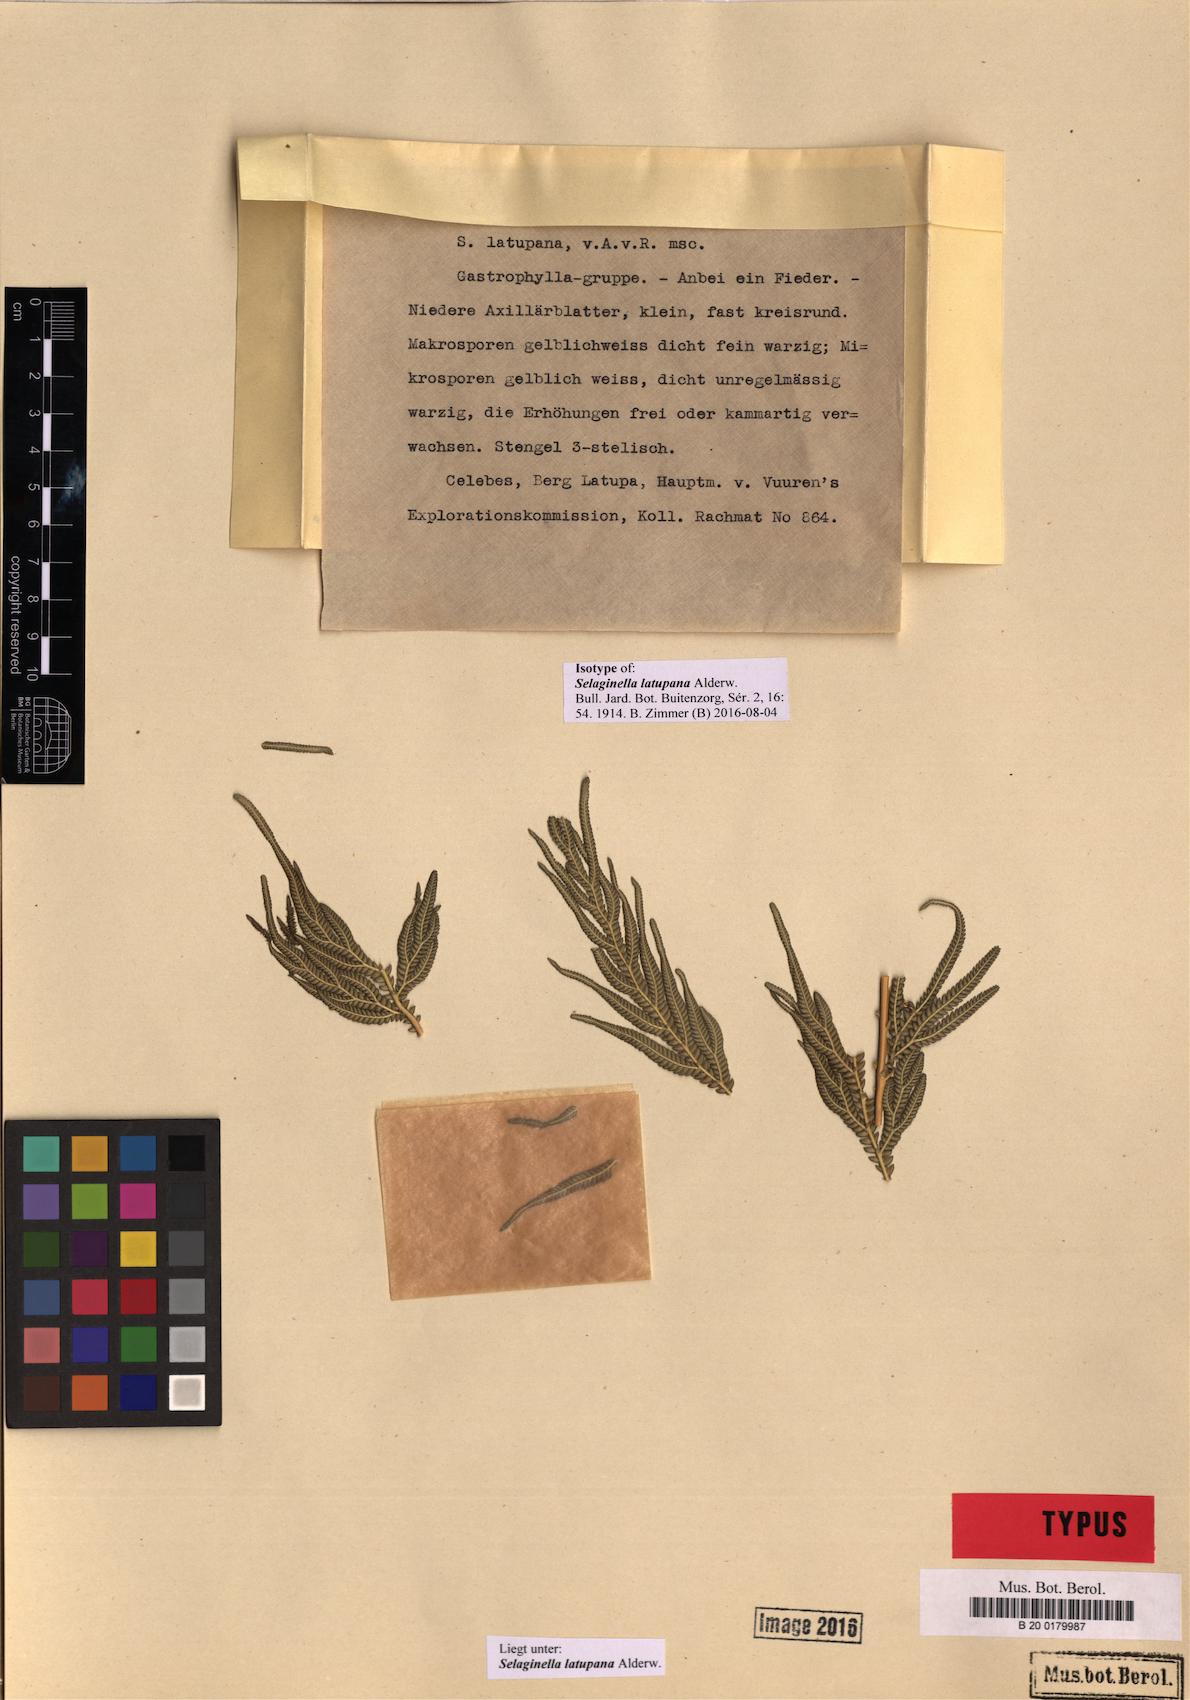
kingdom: Plantae
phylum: Tracheophyta
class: Lycopodiopsida
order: Selaginellales
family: Selaginellaceae
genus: Selaginella
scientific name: Selaginella latupana
